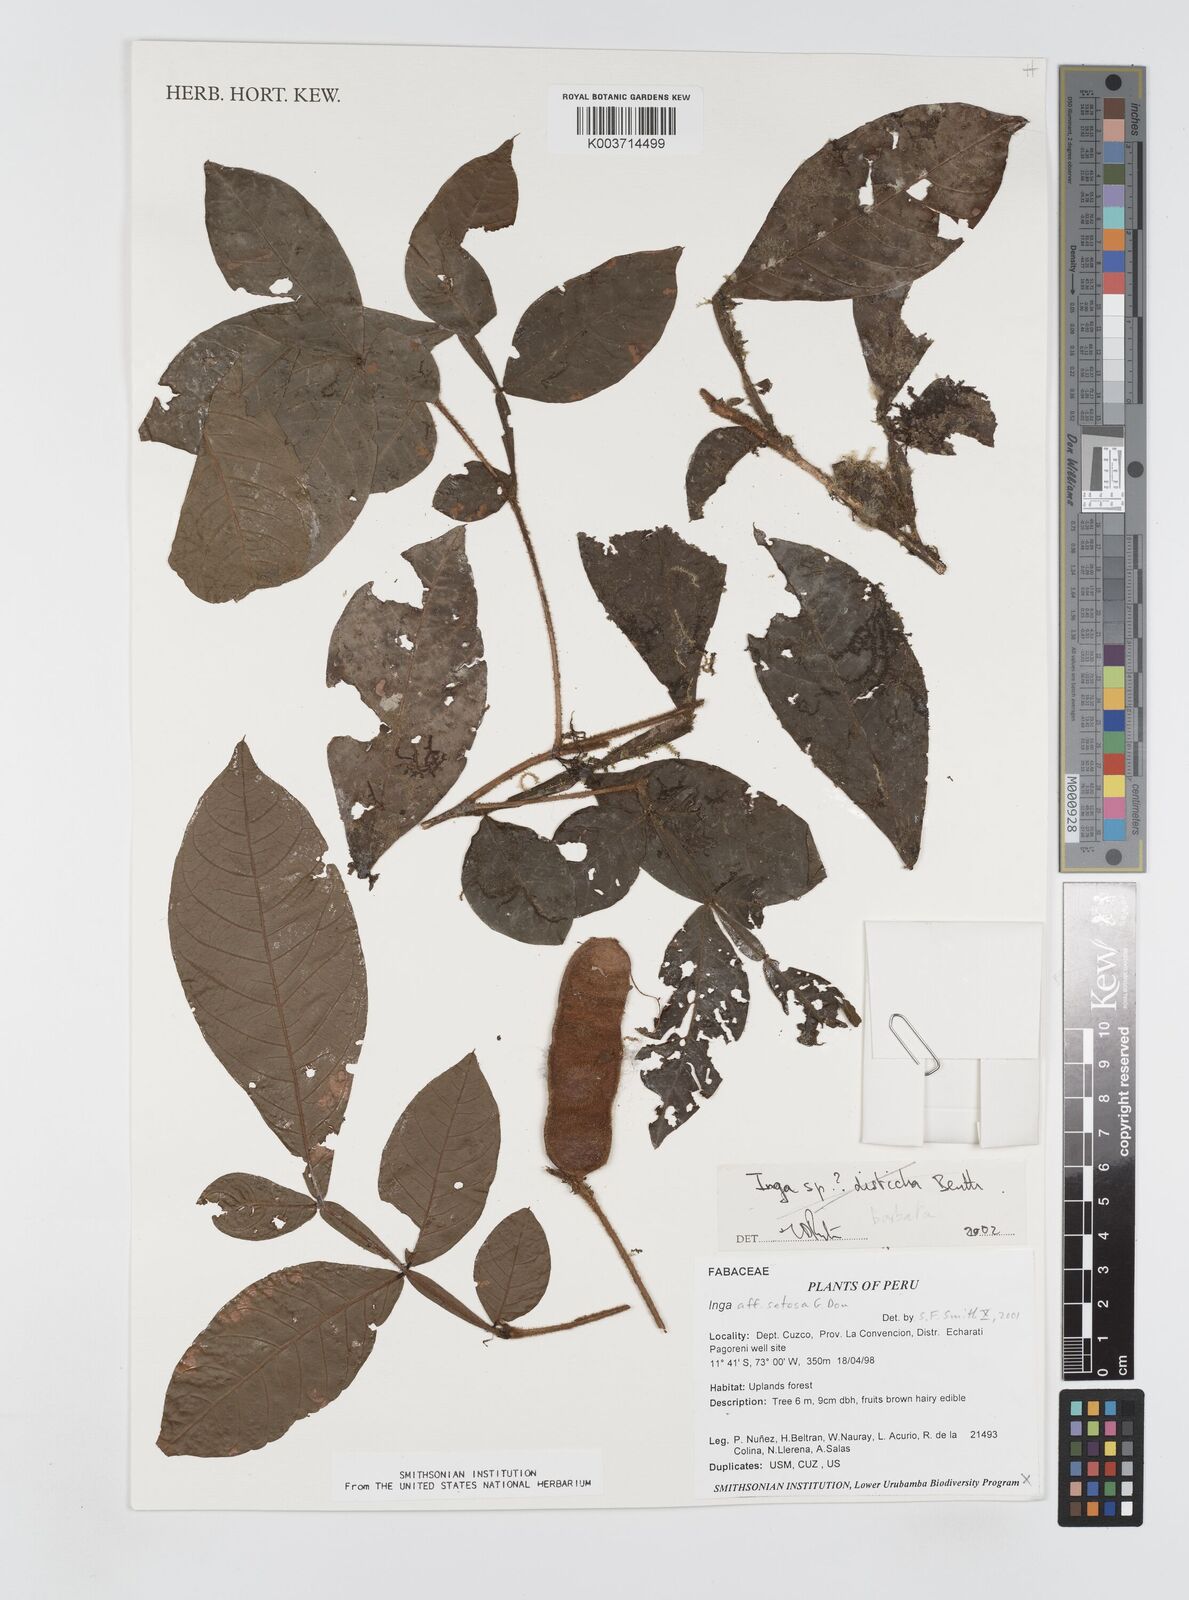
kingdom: Plantae
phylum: Tracheophyta
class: Magnoliopsida
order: Fabales
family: Fabaceae
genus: Inga
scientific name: Inga
